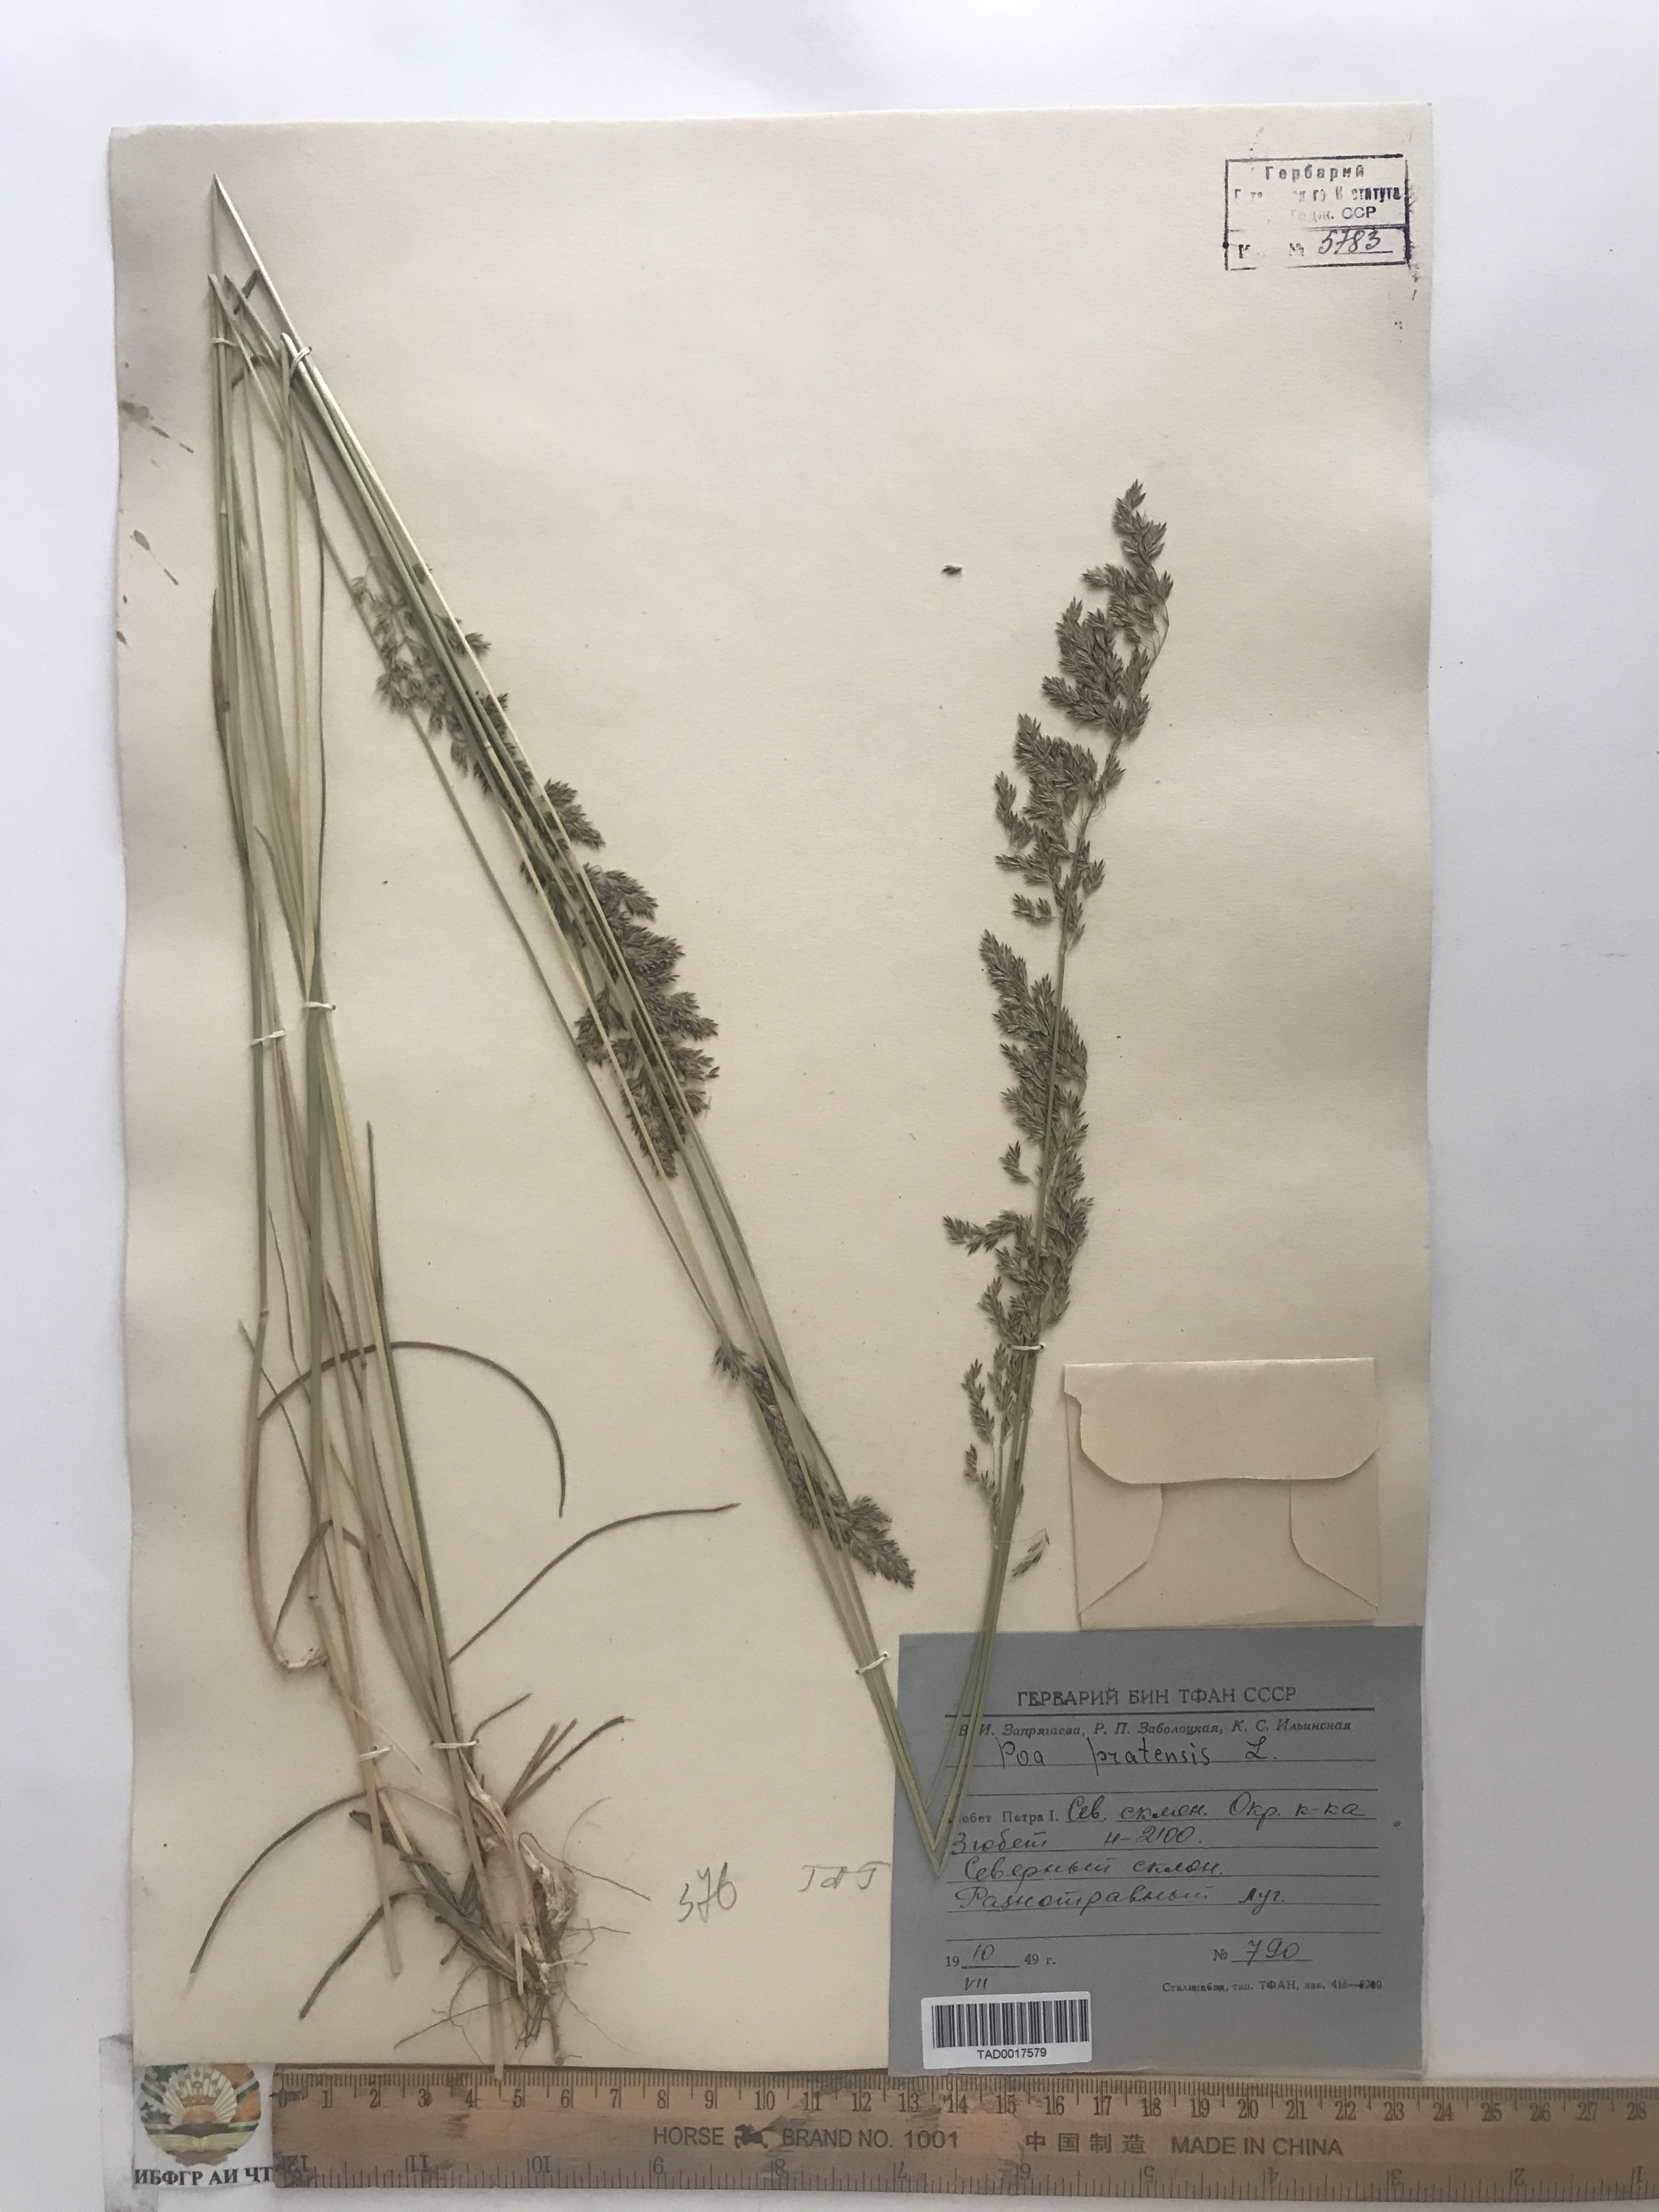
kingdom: Plantae
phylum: Tracheophyta
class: Liliopsida
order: Poales
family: Poaceae
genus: Poa
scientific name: Poa pratensis
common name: Kentucky bluegrass
